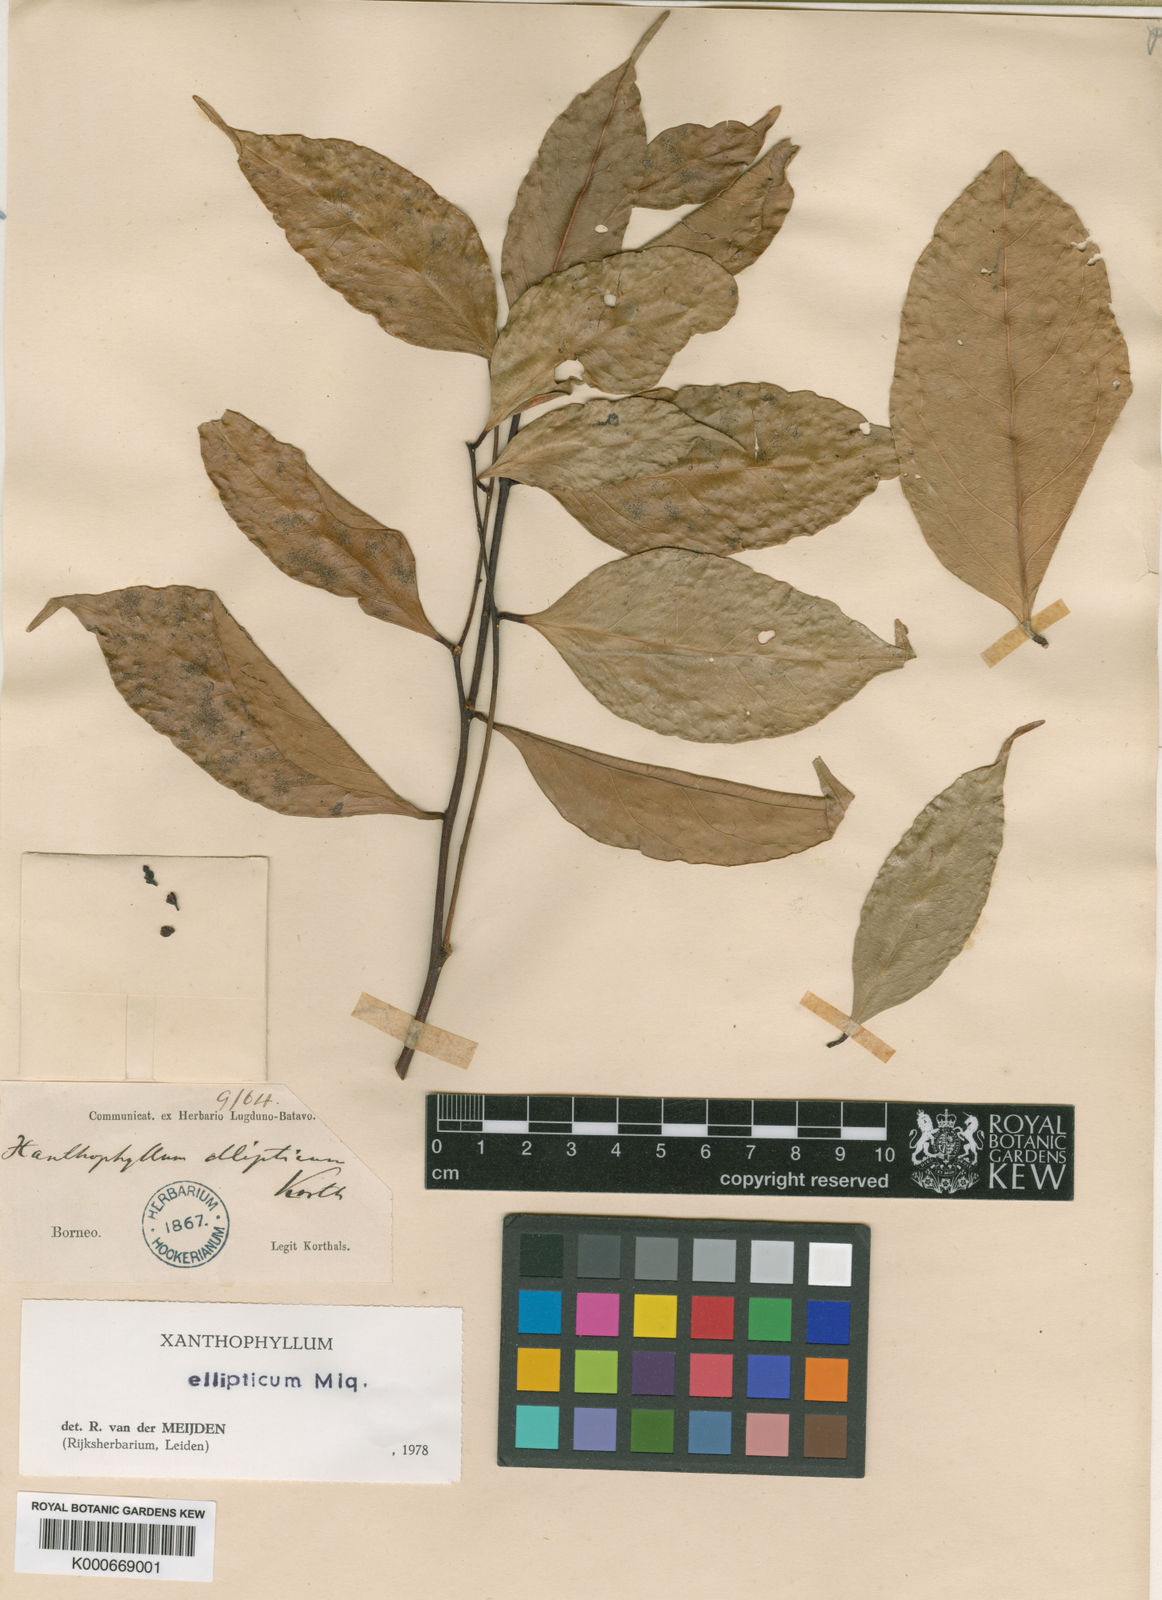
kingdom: Plantae
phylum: Tracheophyta
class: Magnoliopsida
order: Fabales
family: Polygalaceae
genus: Xanthophyllum
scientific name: Xanthophyllum ellipticum
